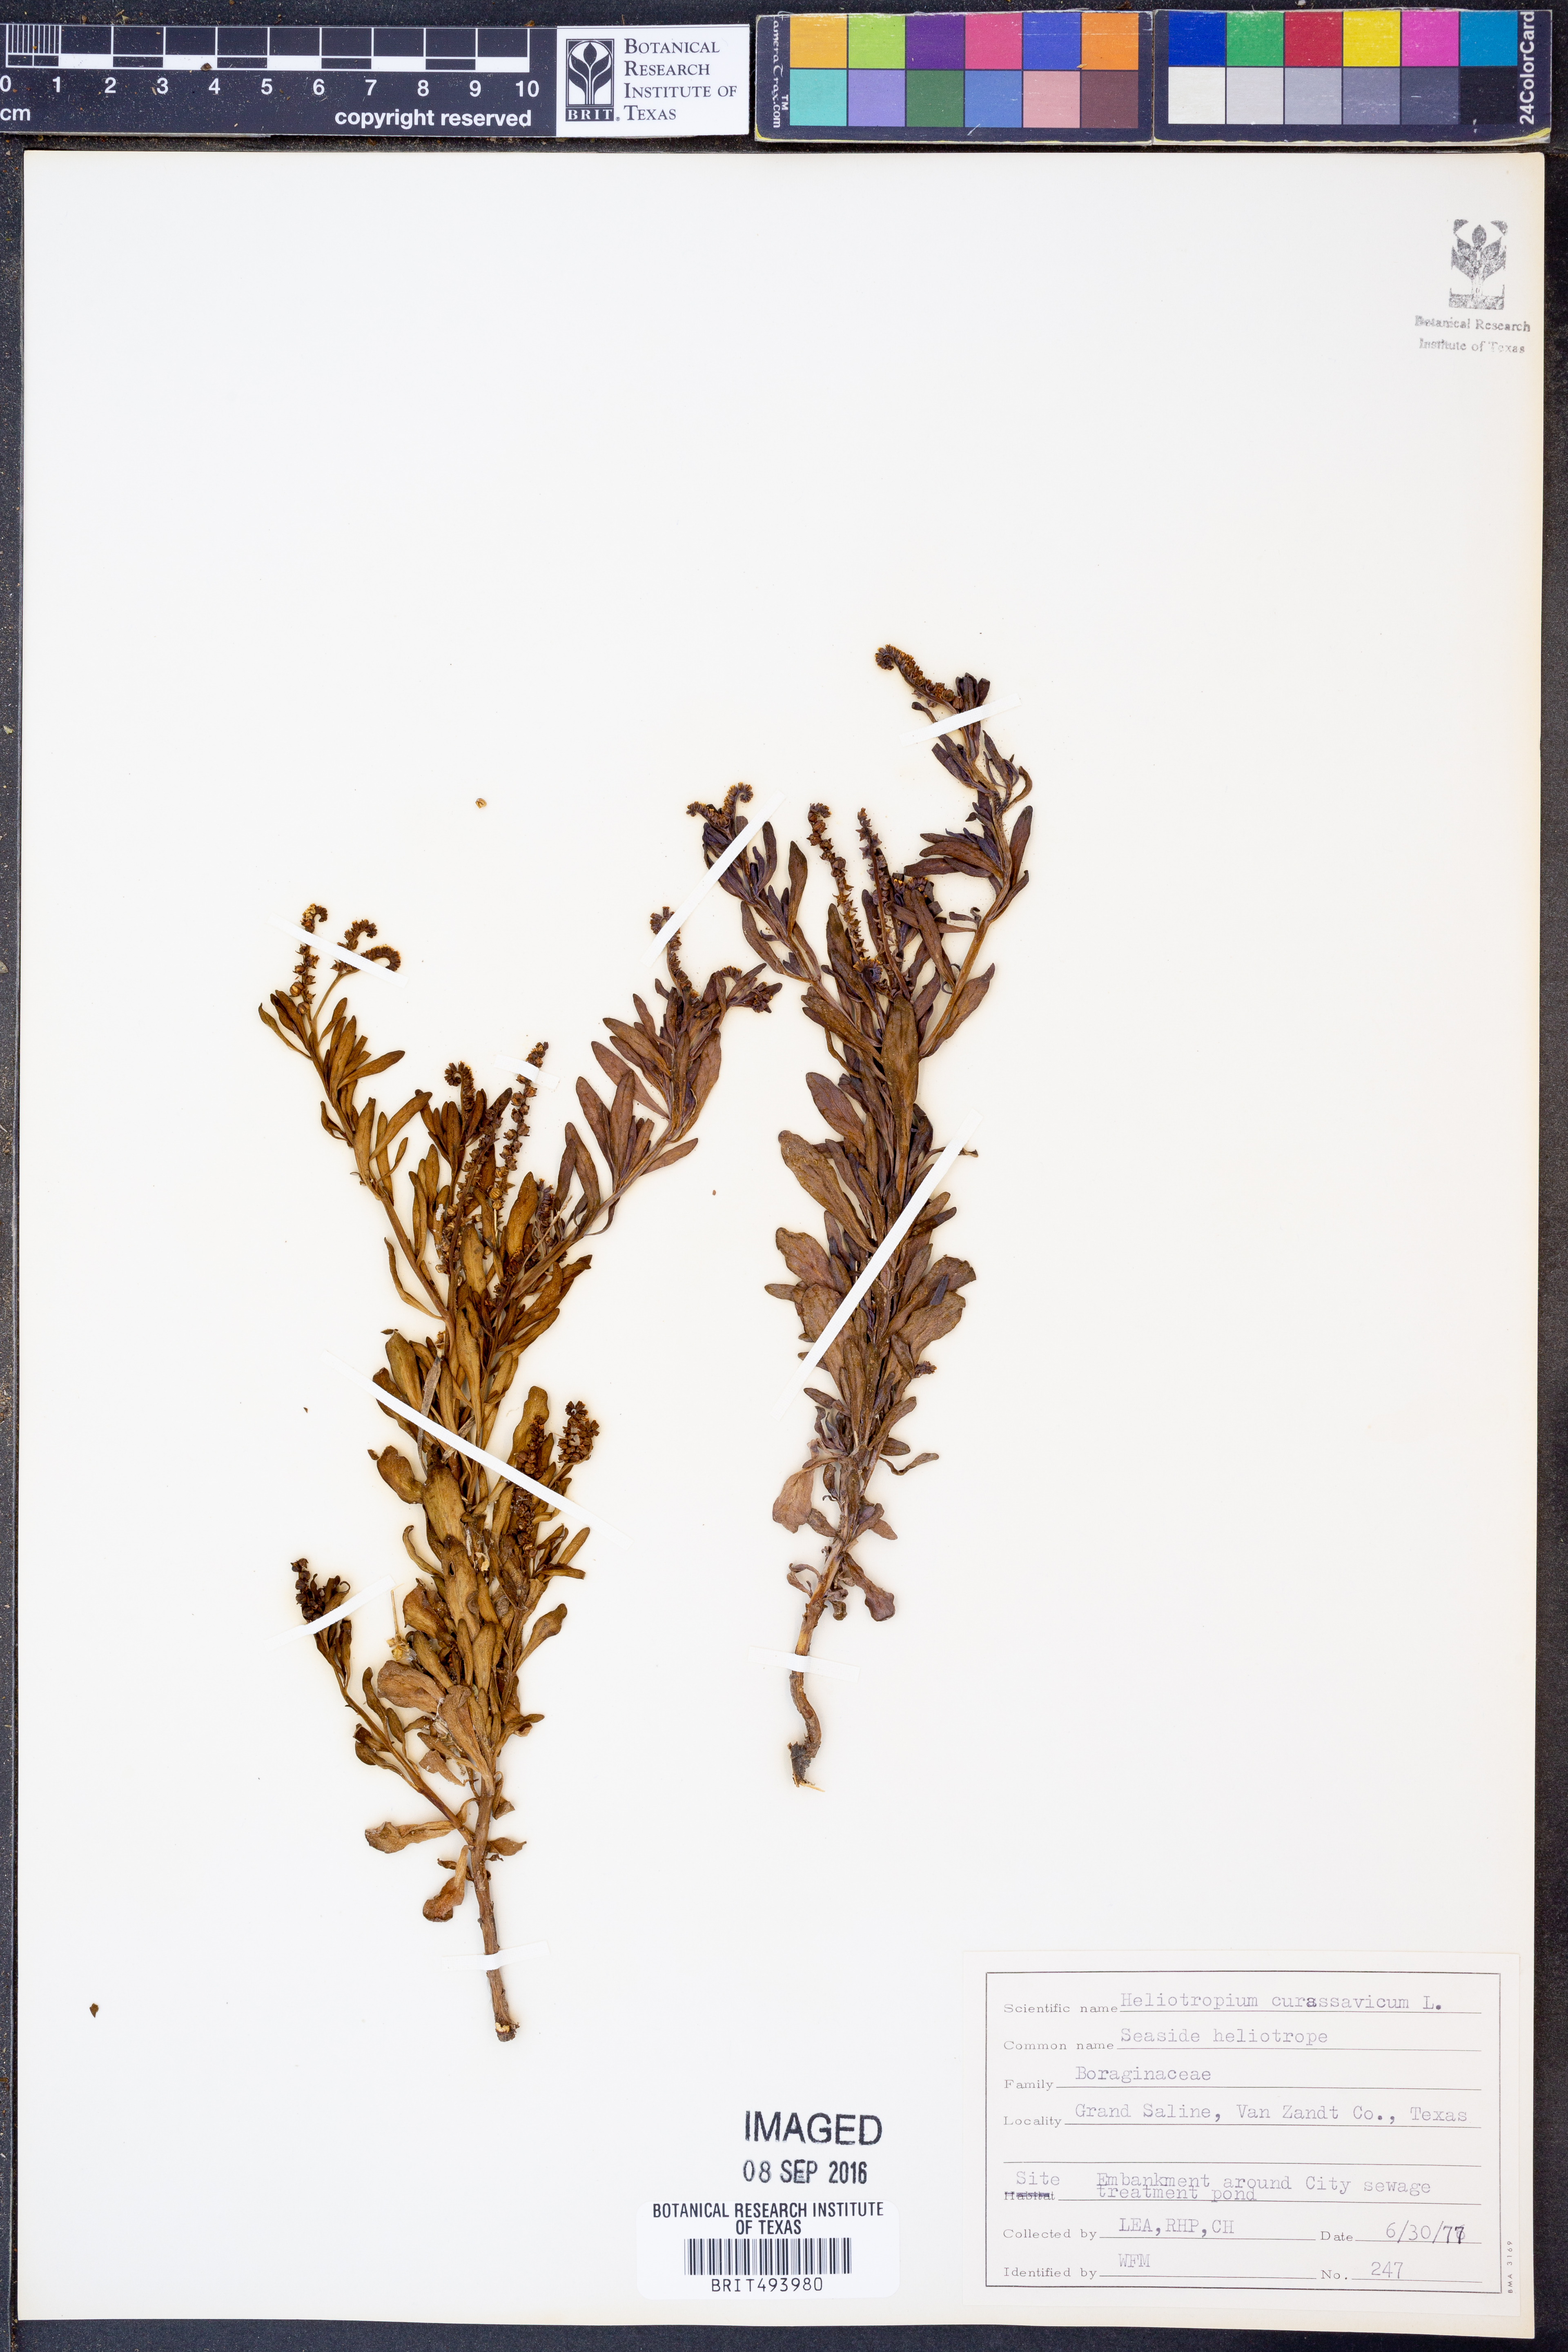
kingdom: Plantae
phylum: Tracheophyta
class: Magnoliopsida
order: Boraginales
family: Heliotropiaceae
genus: Heliotropium
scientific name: Heliotropium curassavicum
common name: Seaside heliotrope
